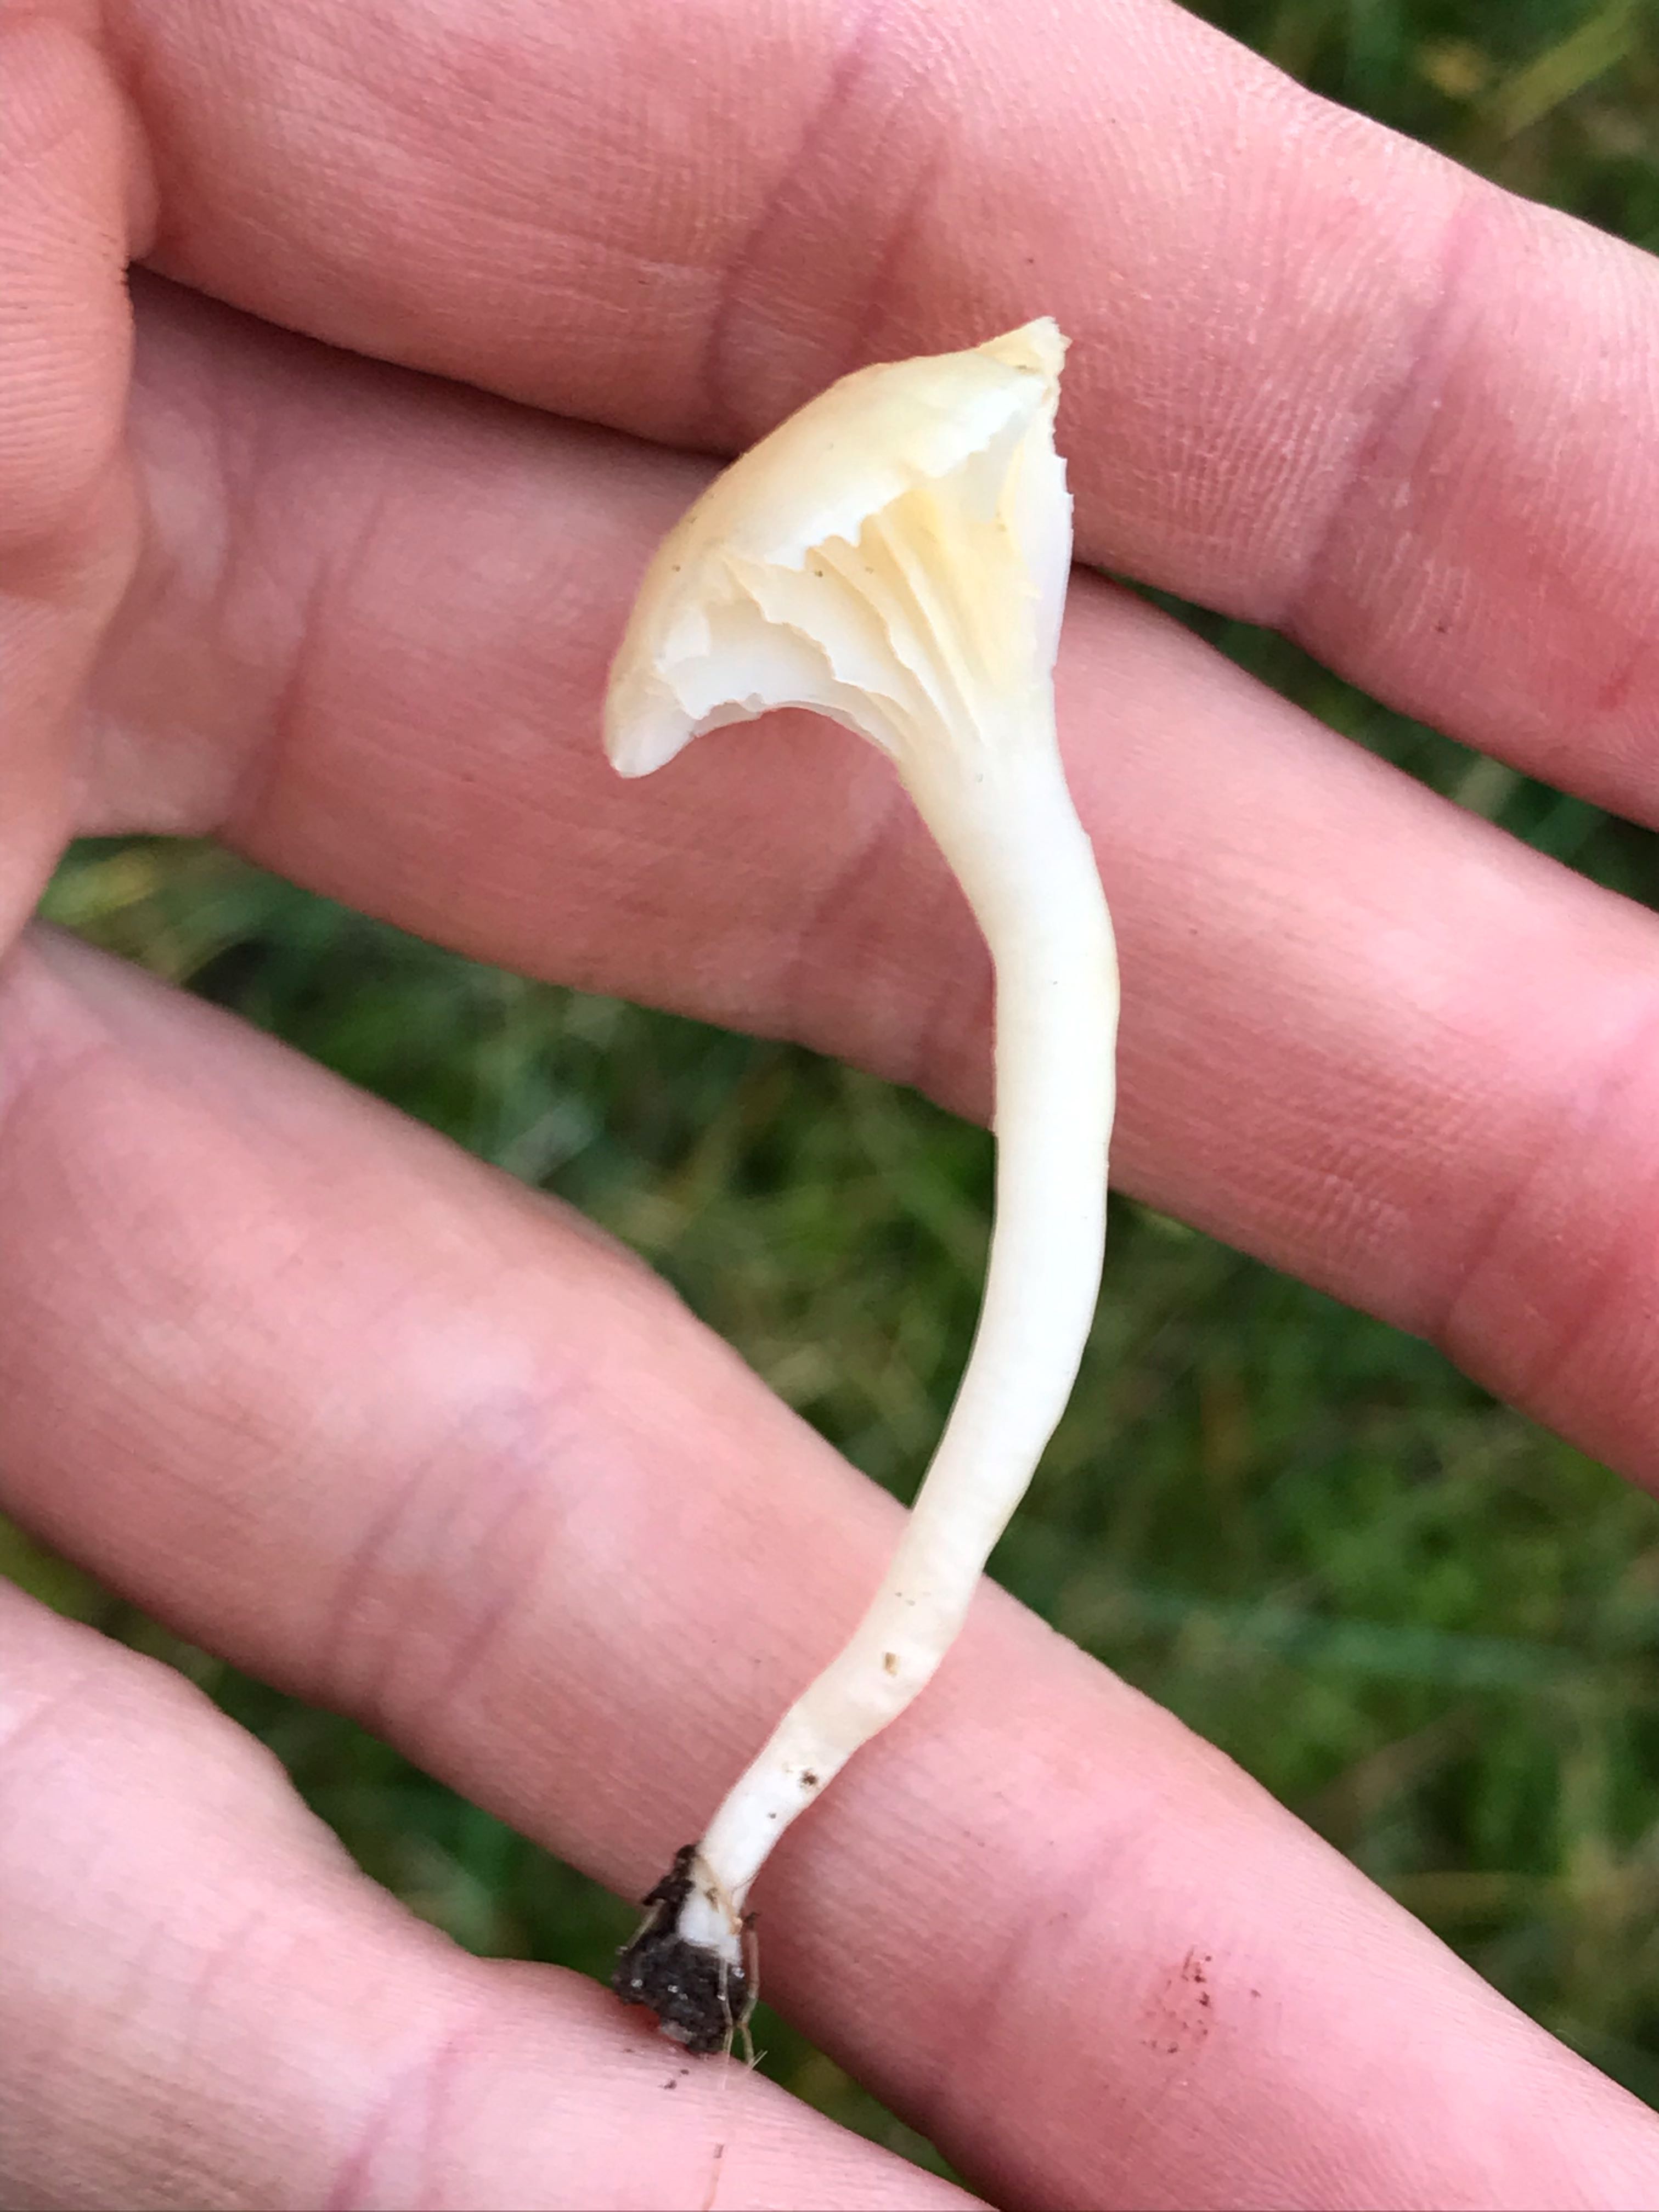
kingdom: Fungi
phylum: Basidiomycota
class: Agaricomycetes
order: Agaricales
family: Hygrophoraceae
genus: Cuphophyllus
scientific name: Cuphophyllus
